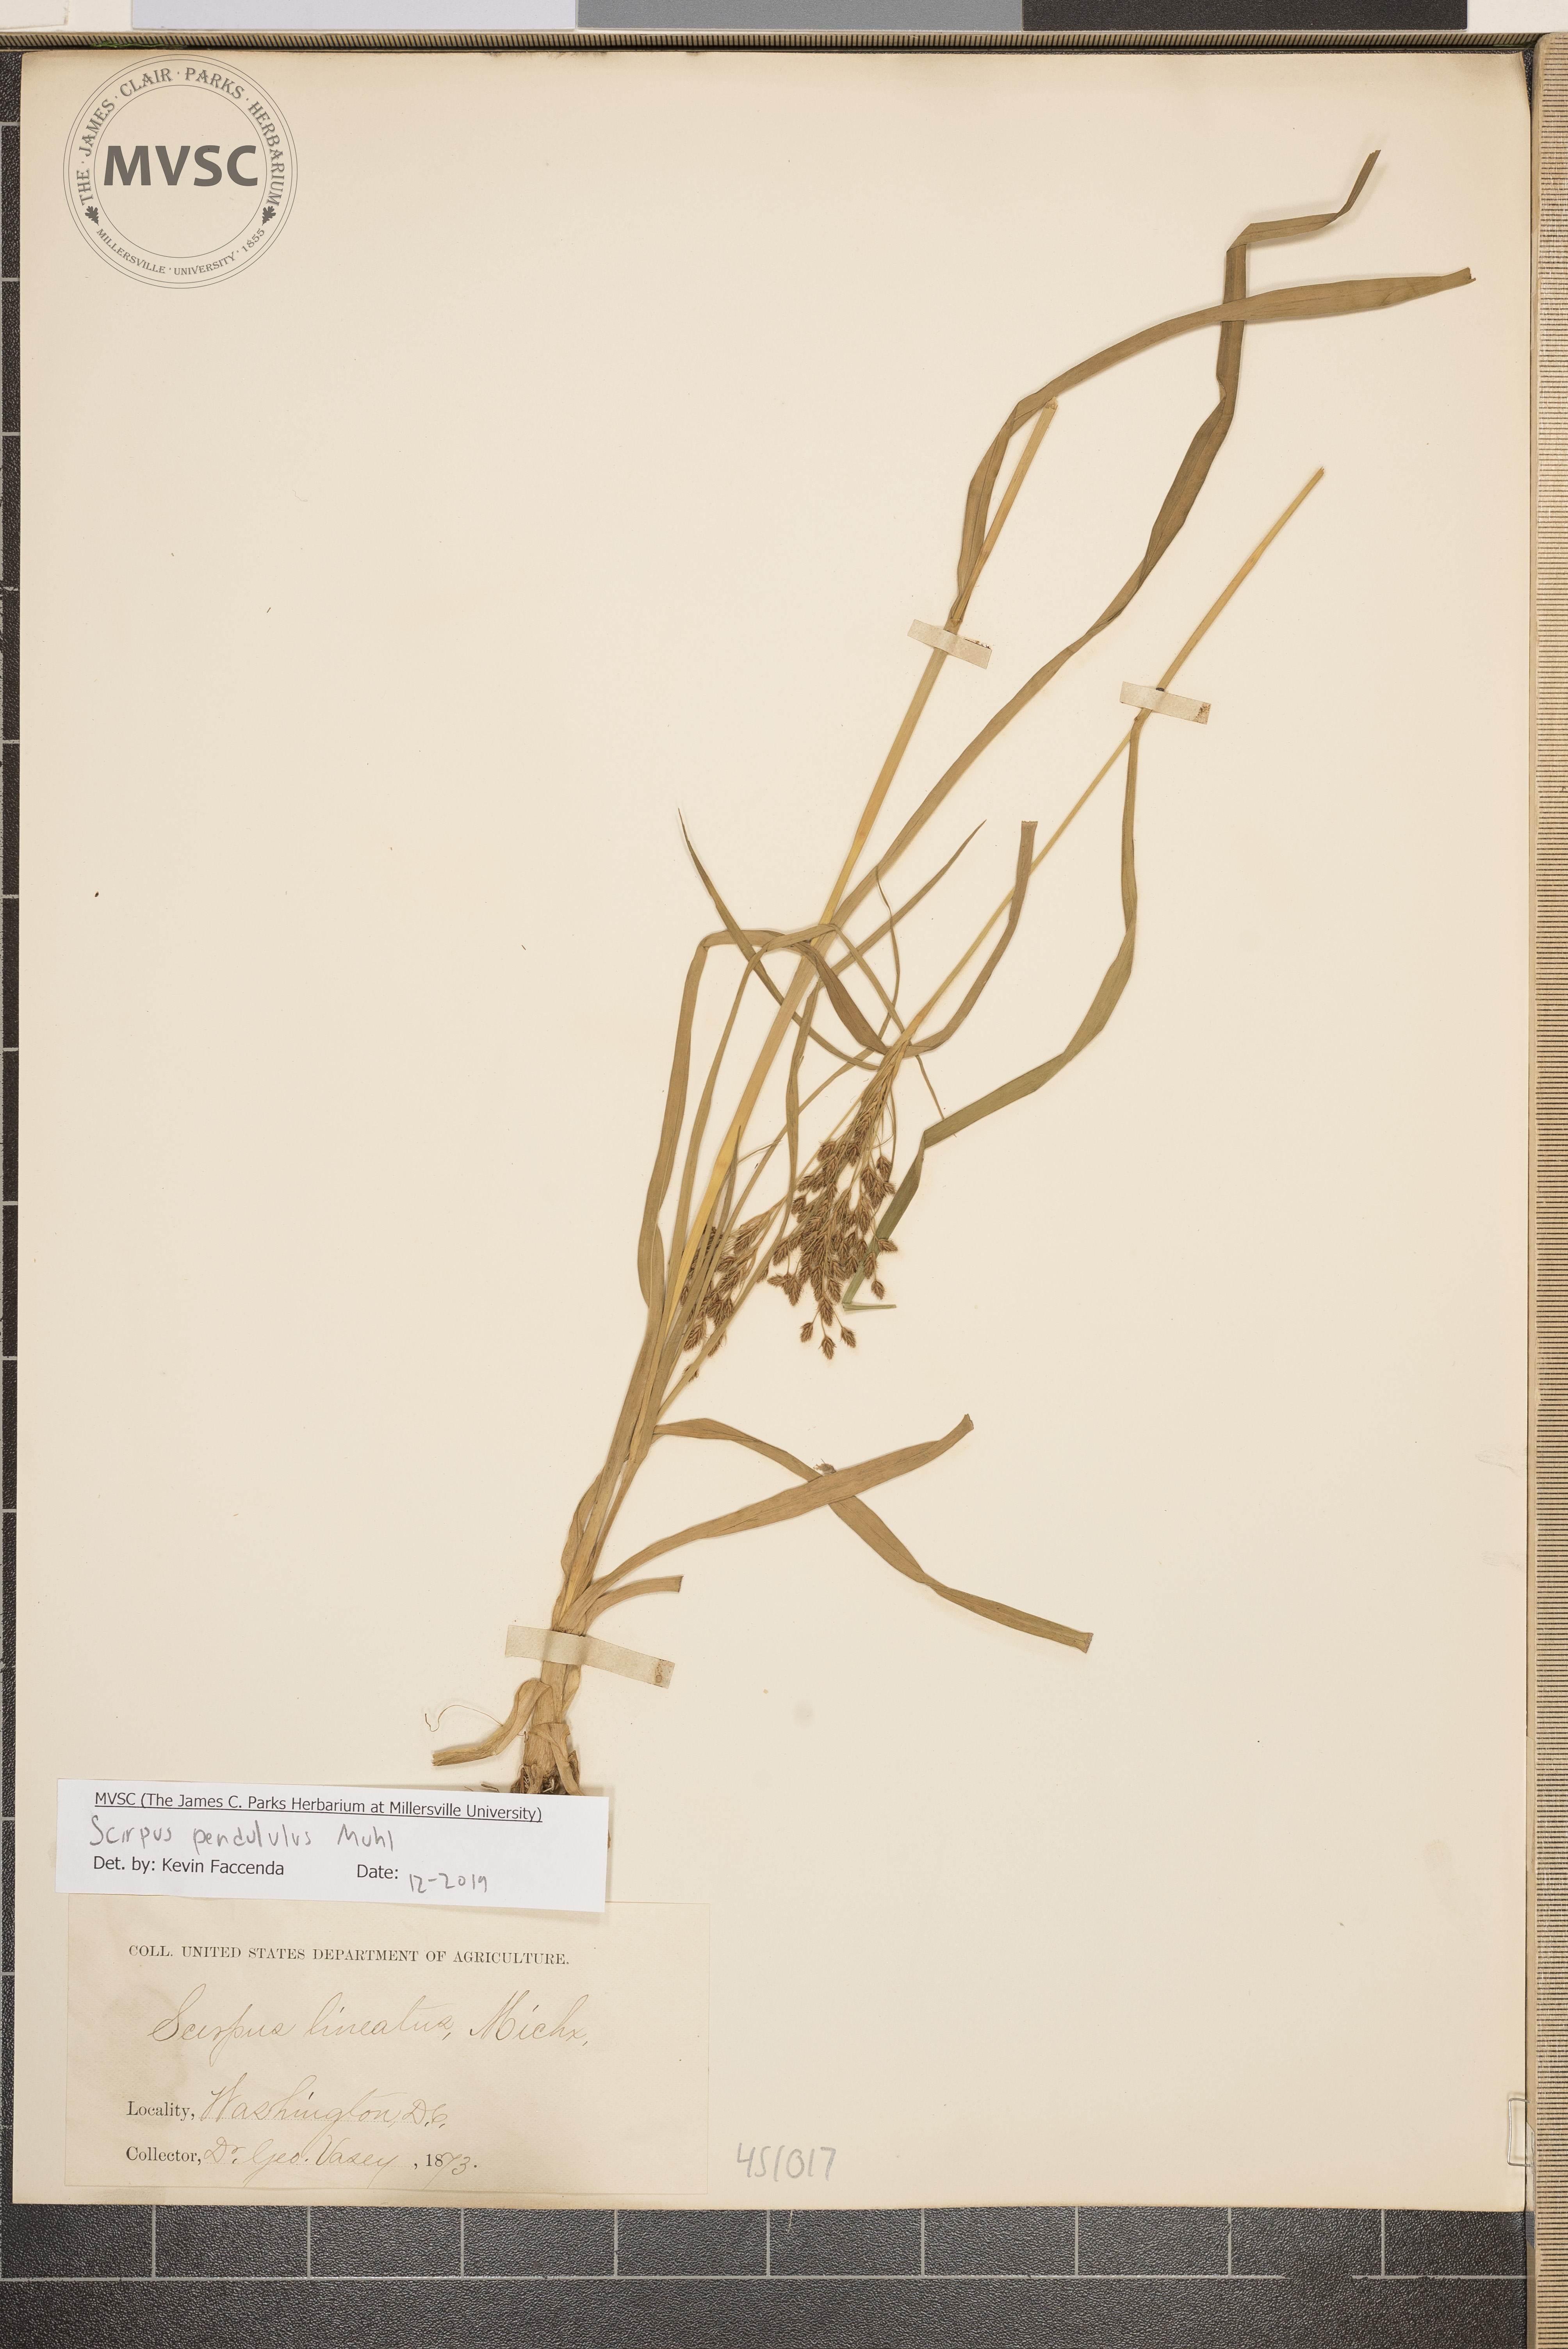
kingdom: Plantae
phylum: Tracheophyta
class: Liliopsida
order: Poales
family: Cyperaceae
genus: Scirpus
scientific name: Scirpus pendulus
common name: Nodding bulrush
